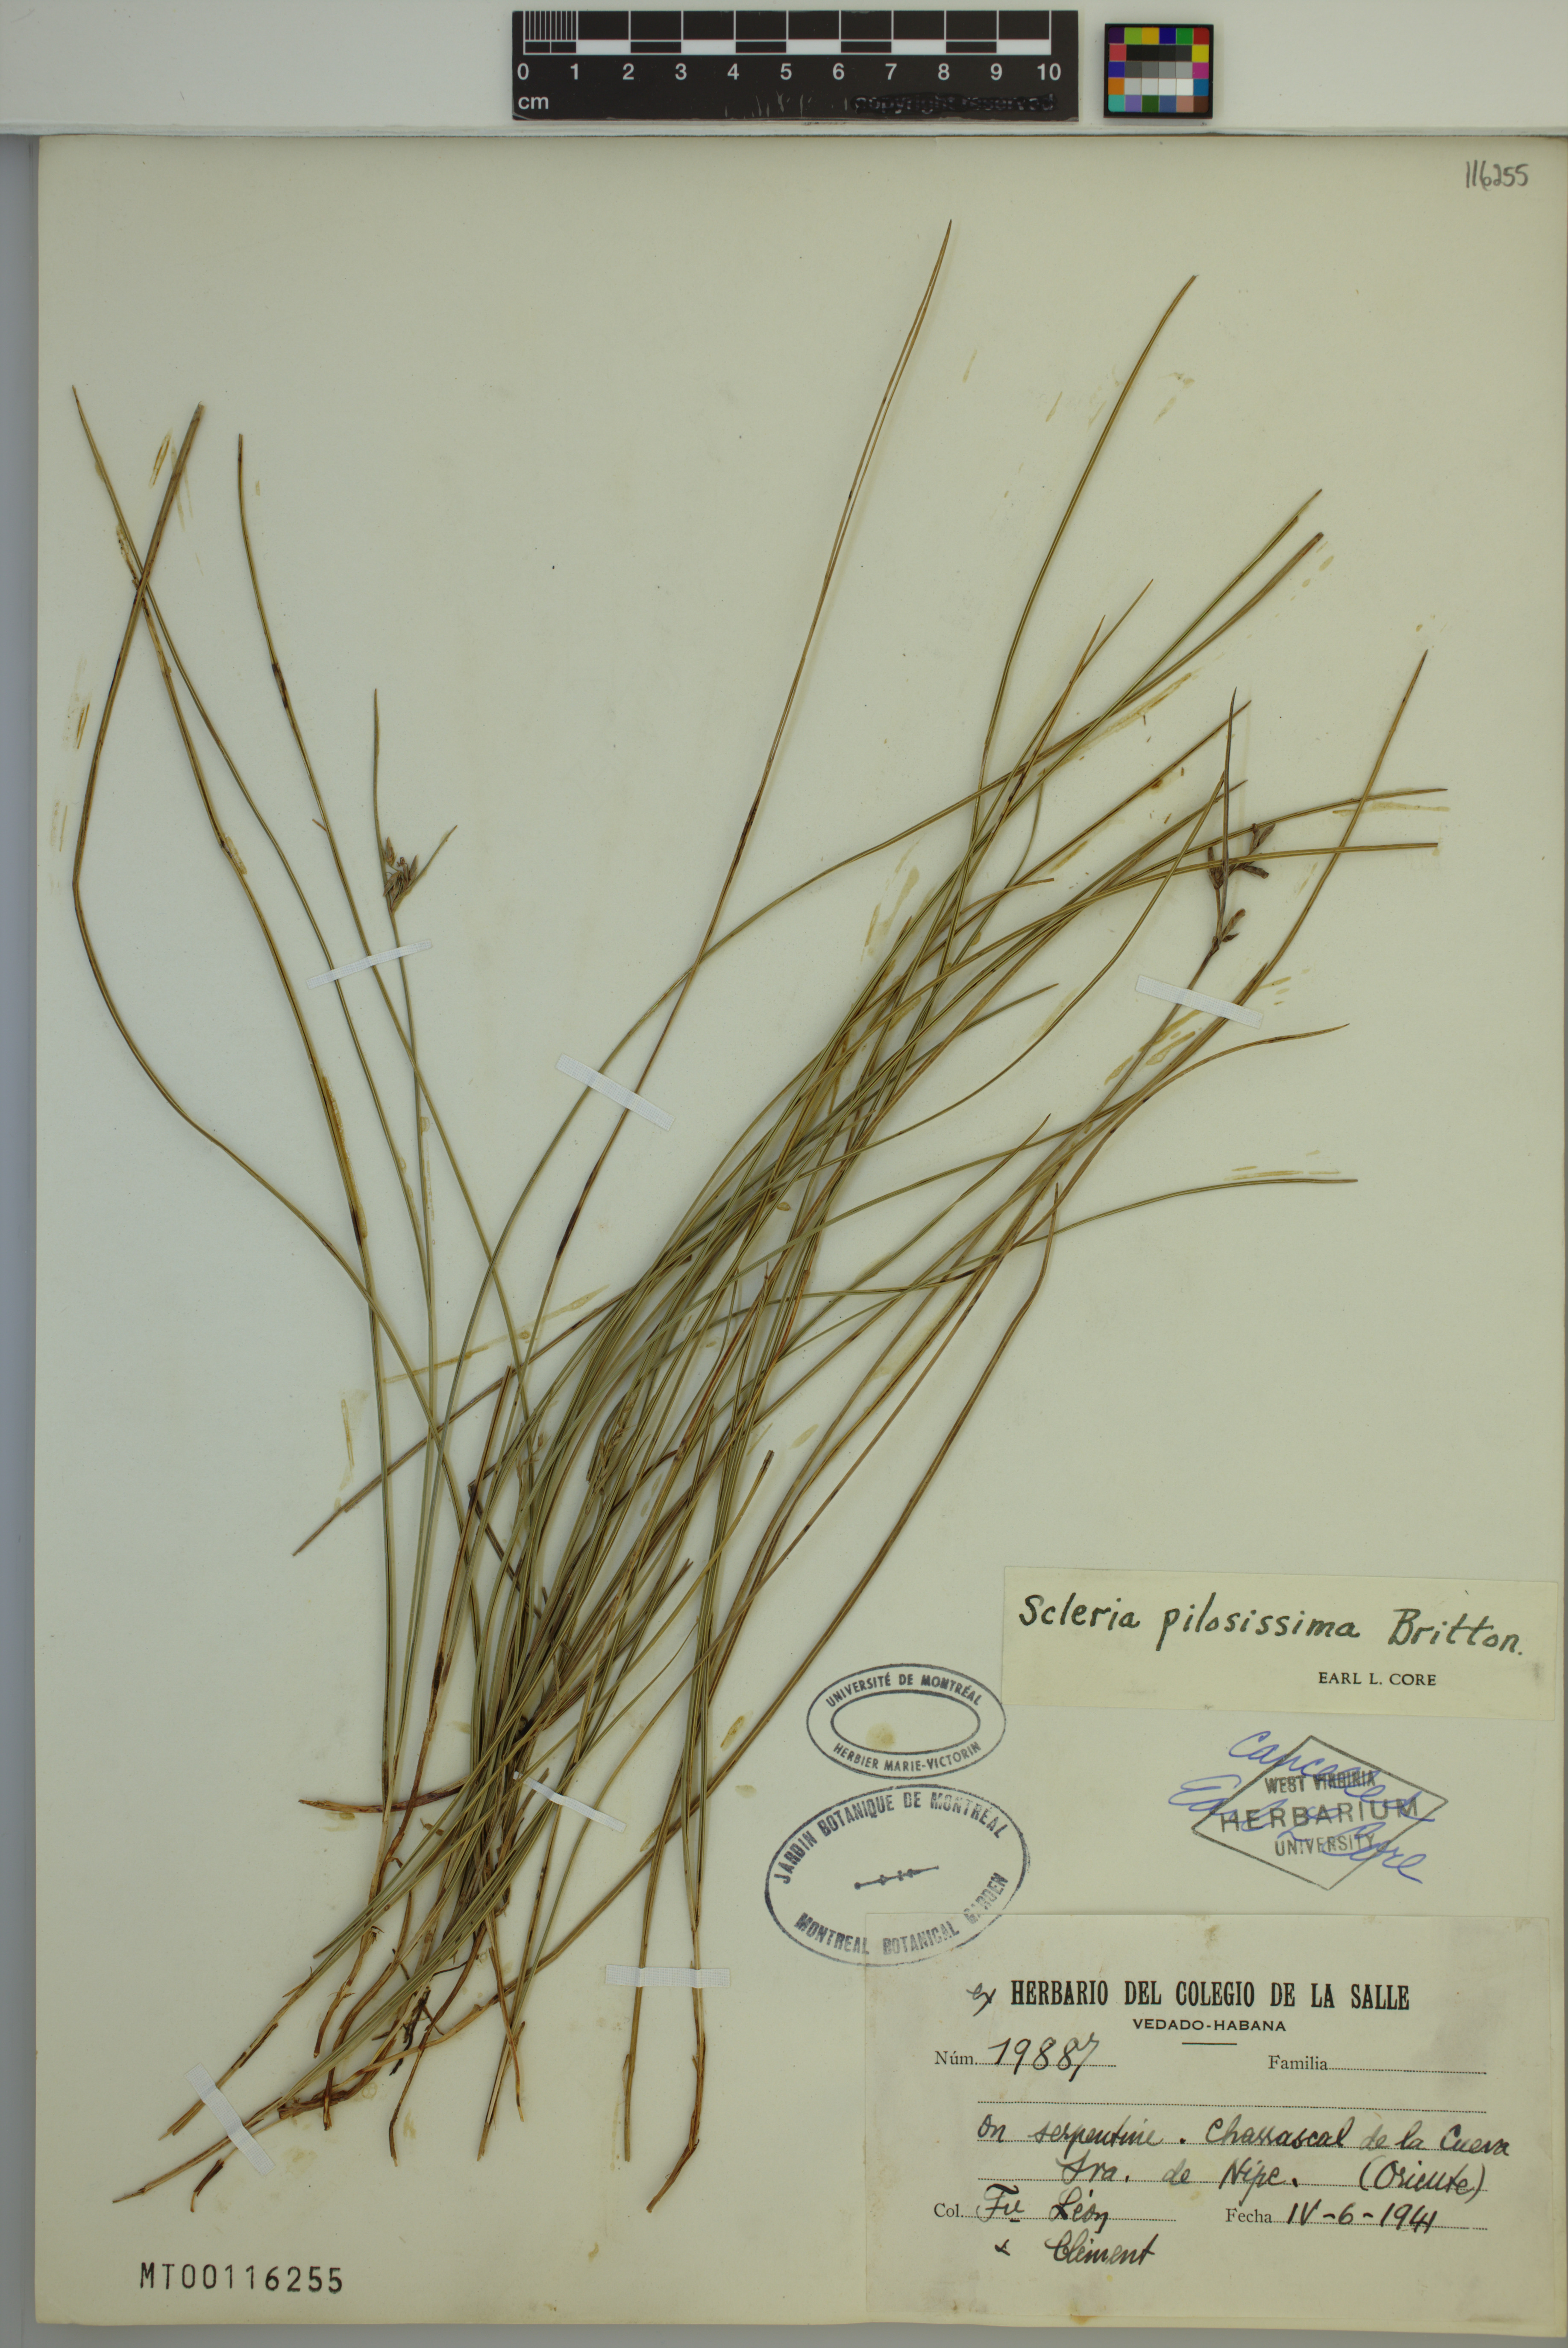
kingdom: Plantae
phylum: Tracheophyta
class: Liliopsida
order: Poales
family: Cyperaceae
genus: Scleria
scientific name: Scleria pilosissima
